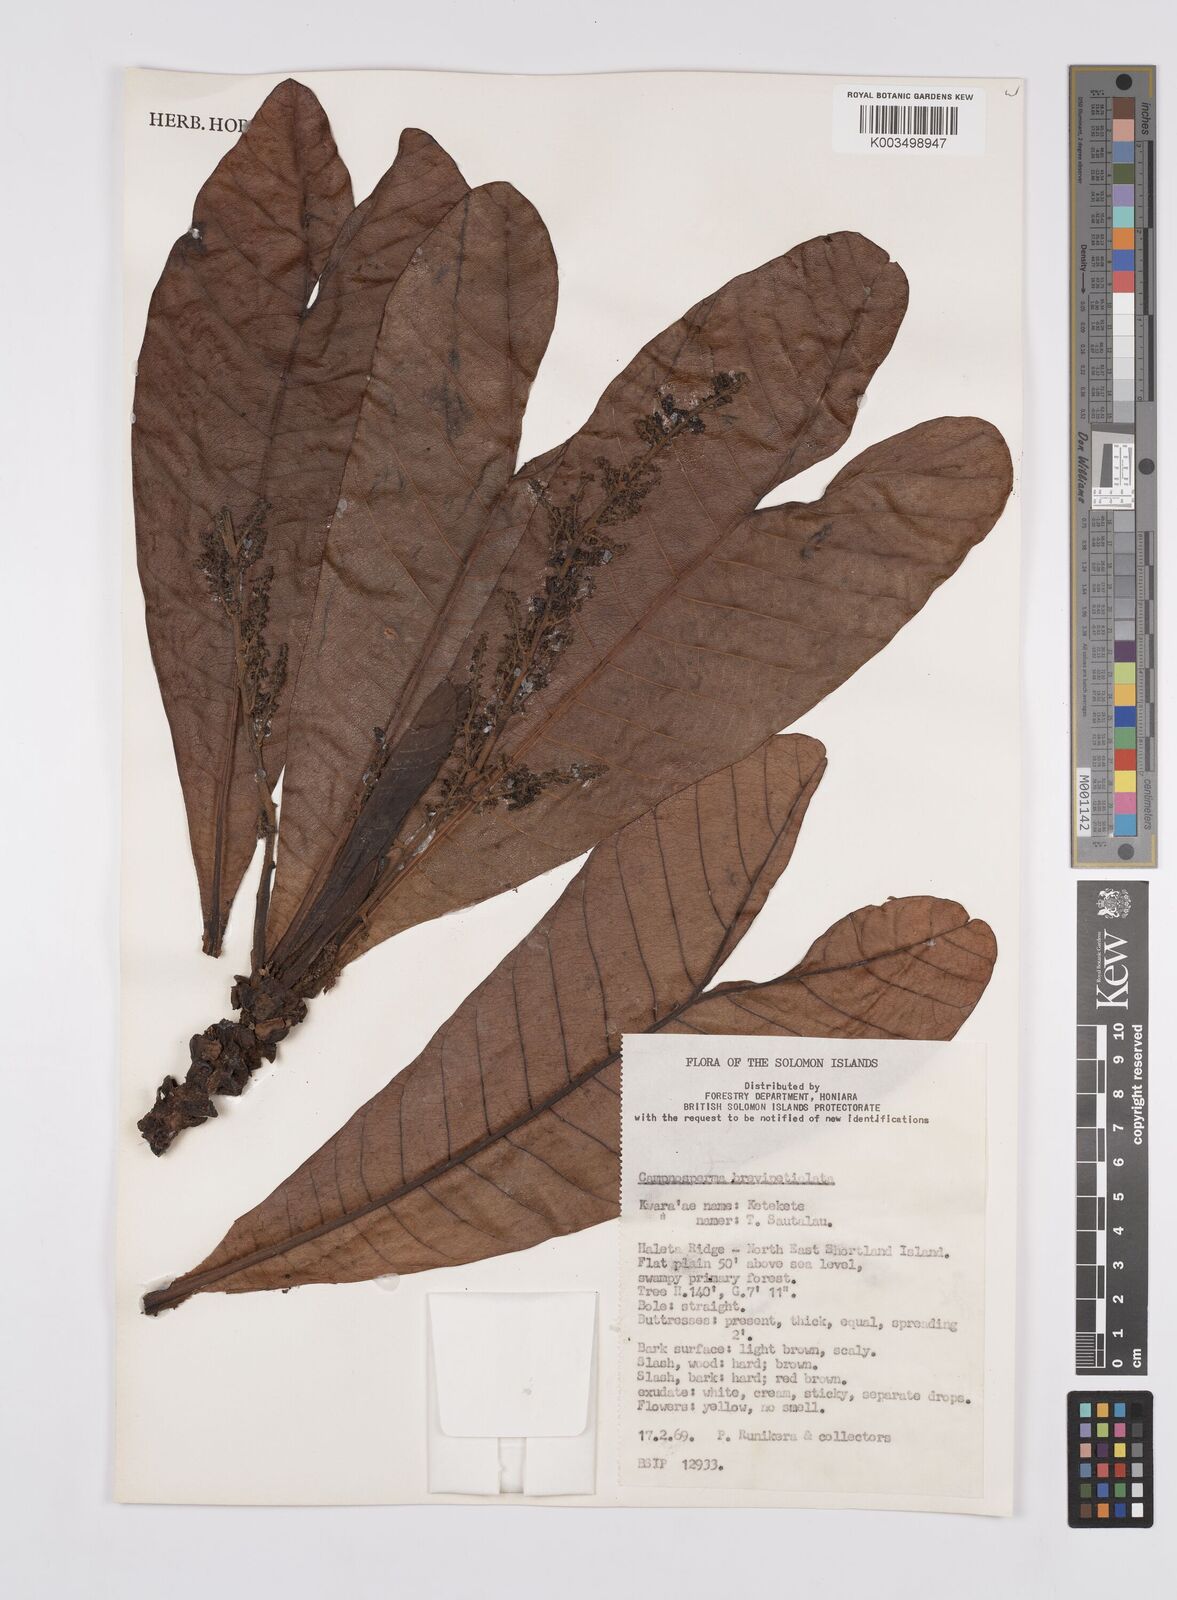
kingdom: Plantae
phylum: Tracheophyta
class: Magnoliopsida
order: Sapindales
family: Anacardiaceae
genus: Campnosperma
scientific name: Campnosperma brevipetiolatum
